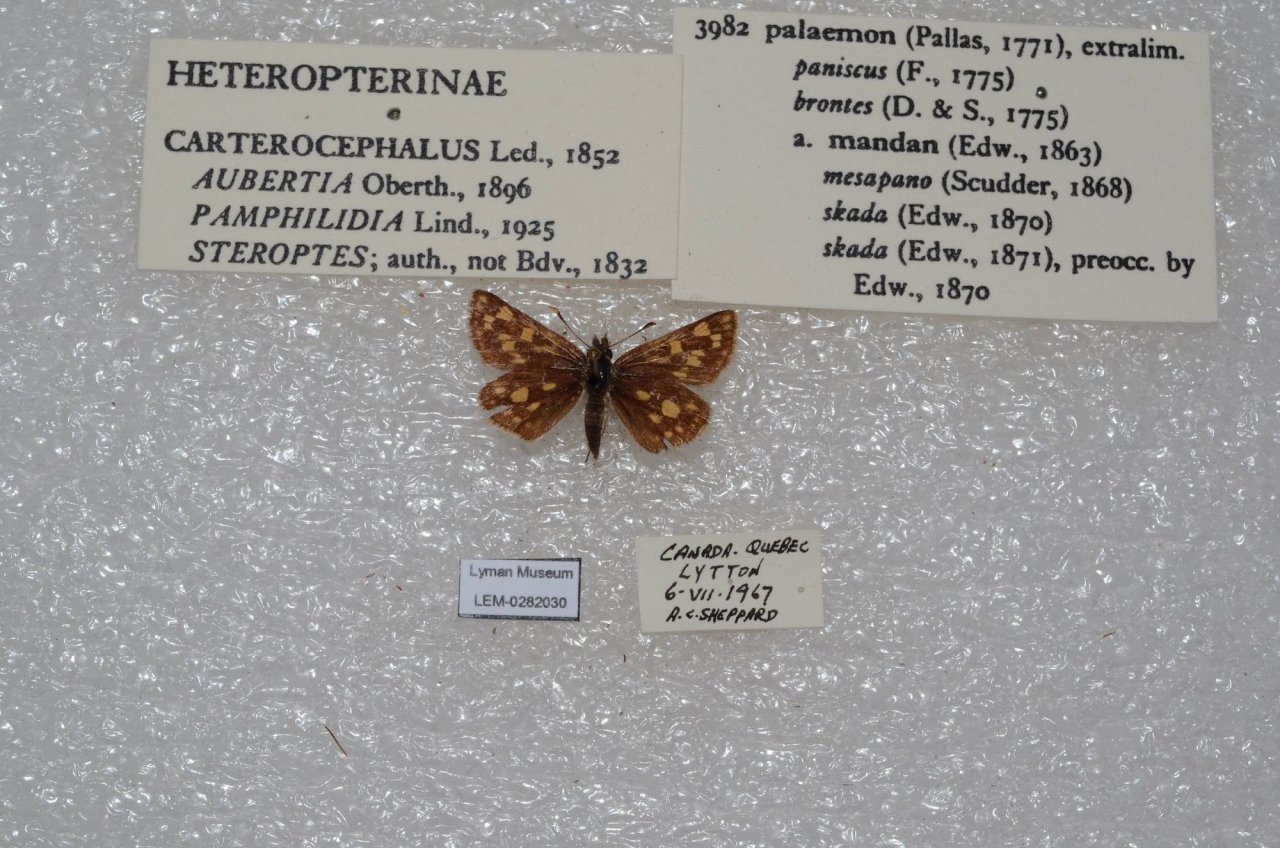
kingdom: Animalia
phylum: Arthropoda
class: Insecta
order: Lepidoptera
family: Hesperiidae
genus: Carterocephalus
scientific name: Carterocephalus palaemon
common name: Chequered Skipper
